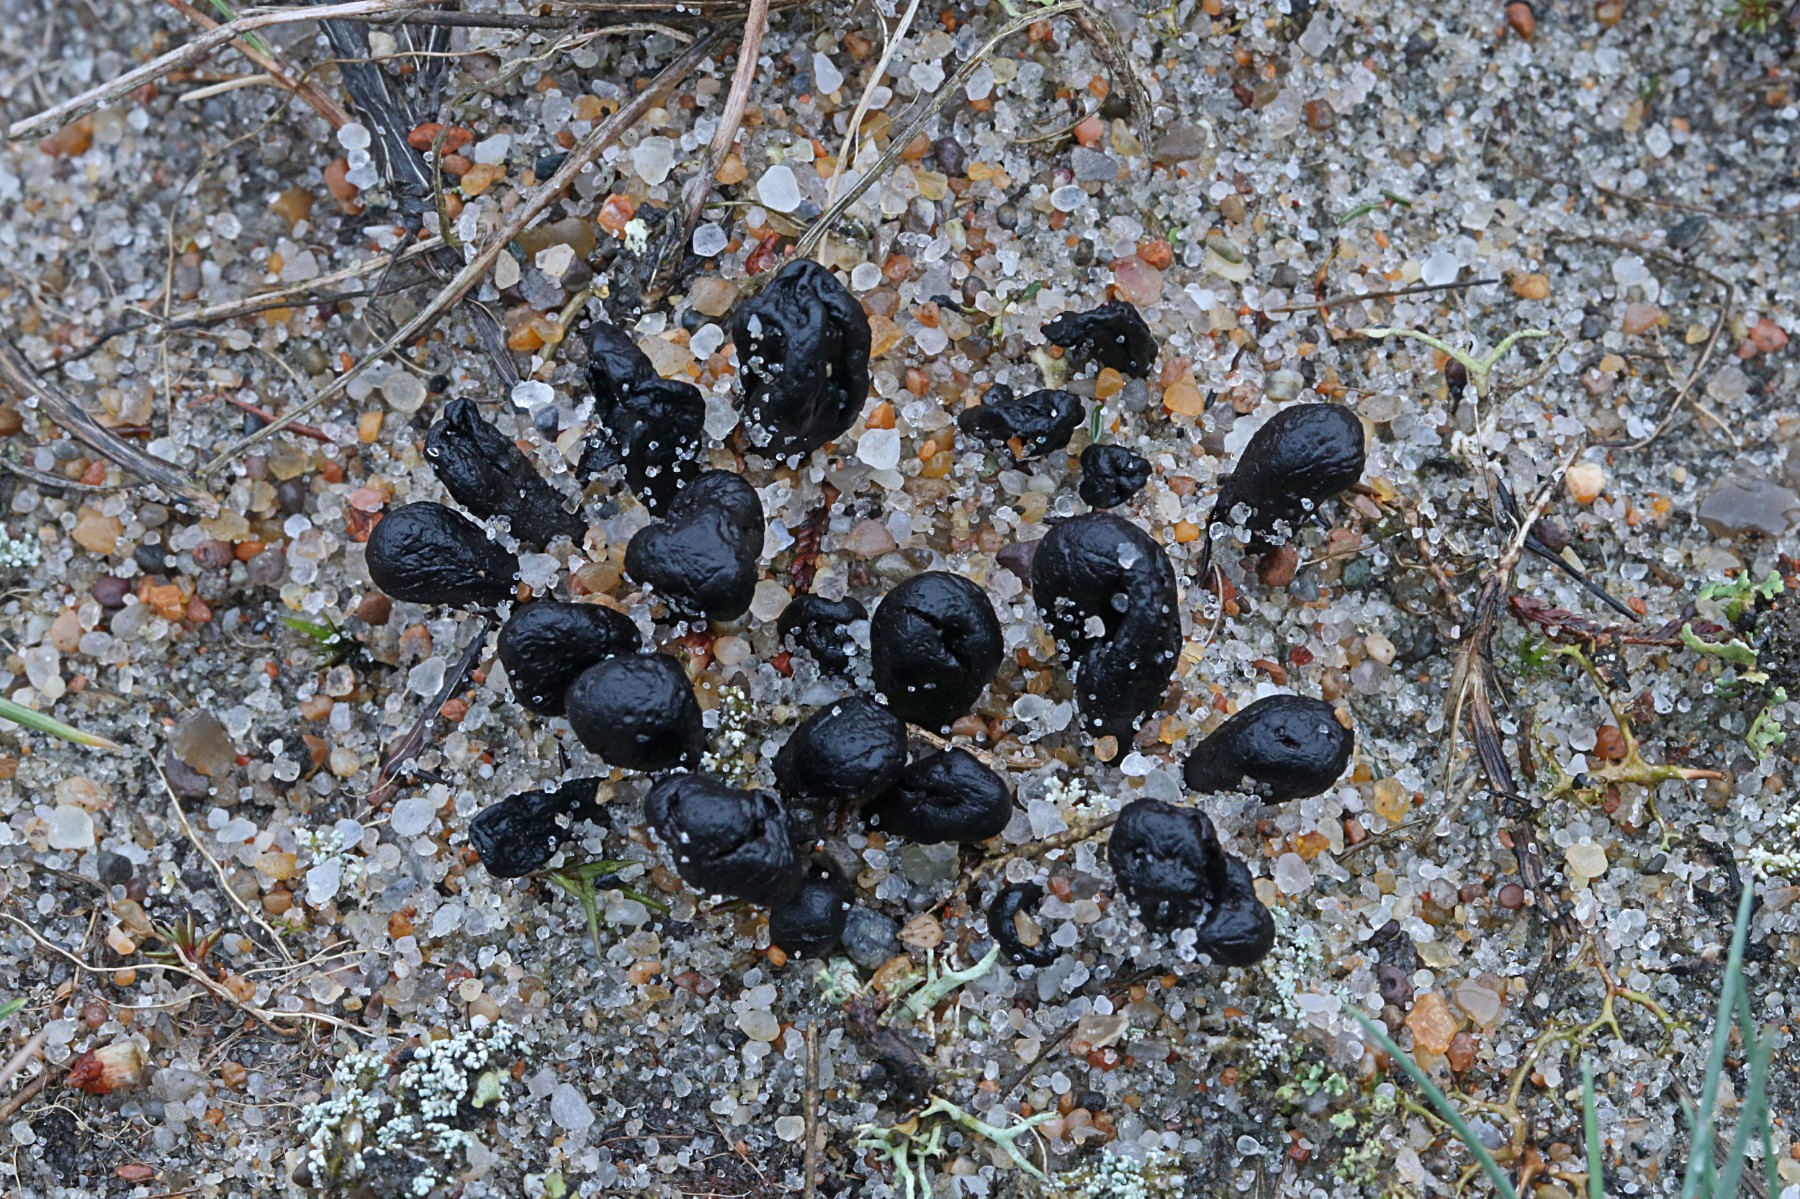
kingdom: Fungi
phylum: Ascomycota
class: Geoglossomycetes
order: Geoglossales
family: Geoglossaceae
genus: Sabuloglossum
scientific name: Sabuloglossum arenarium
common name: klit-jordtunge
